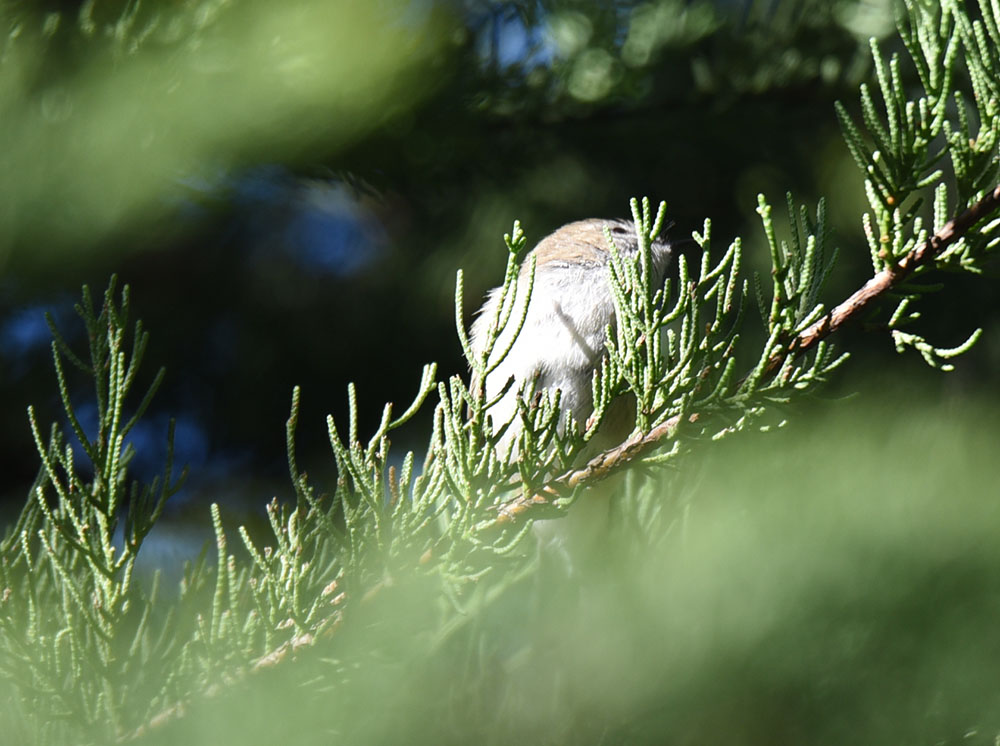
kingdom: Animalia
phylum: Chordata
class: Aves
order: Passeriformes
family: Acanthizidae
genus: Gerygone
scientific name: Gerygone igata
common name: Grey gerygone
